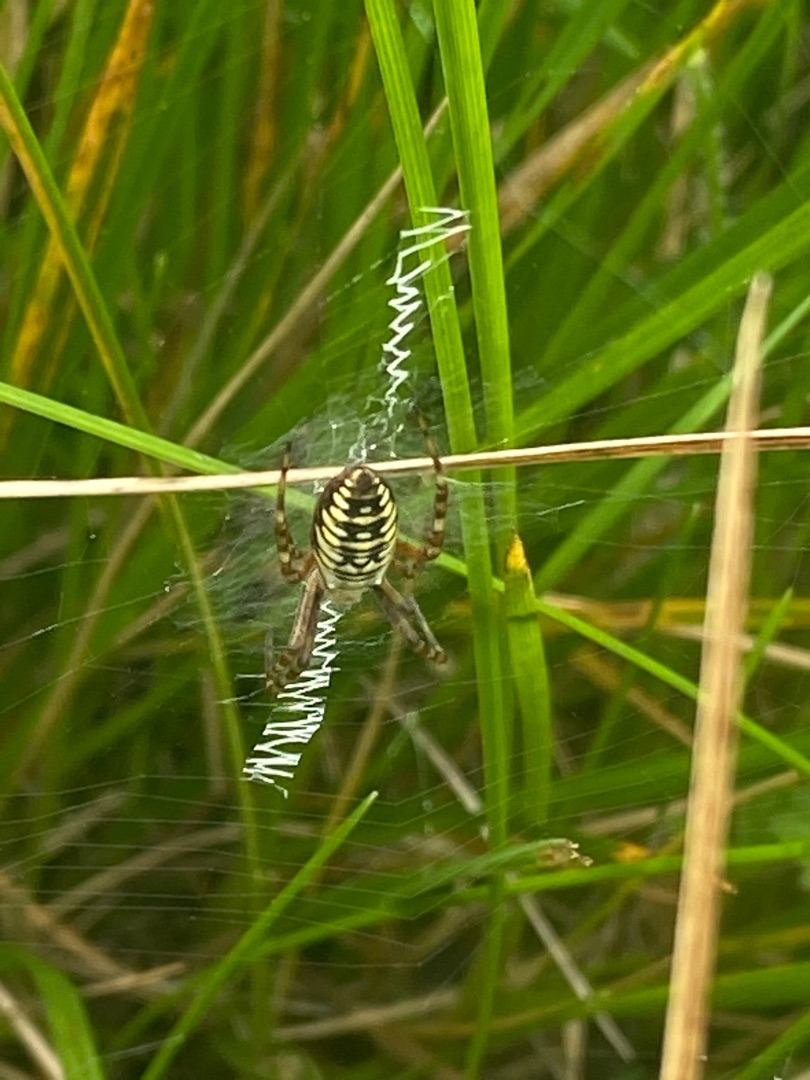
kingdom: Animalia
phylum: Arthropoda
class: Arachnida
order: Araneae
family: Araneidae
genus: Argiope
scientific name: Argiope bruennichi
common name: Hvepseedderkop
